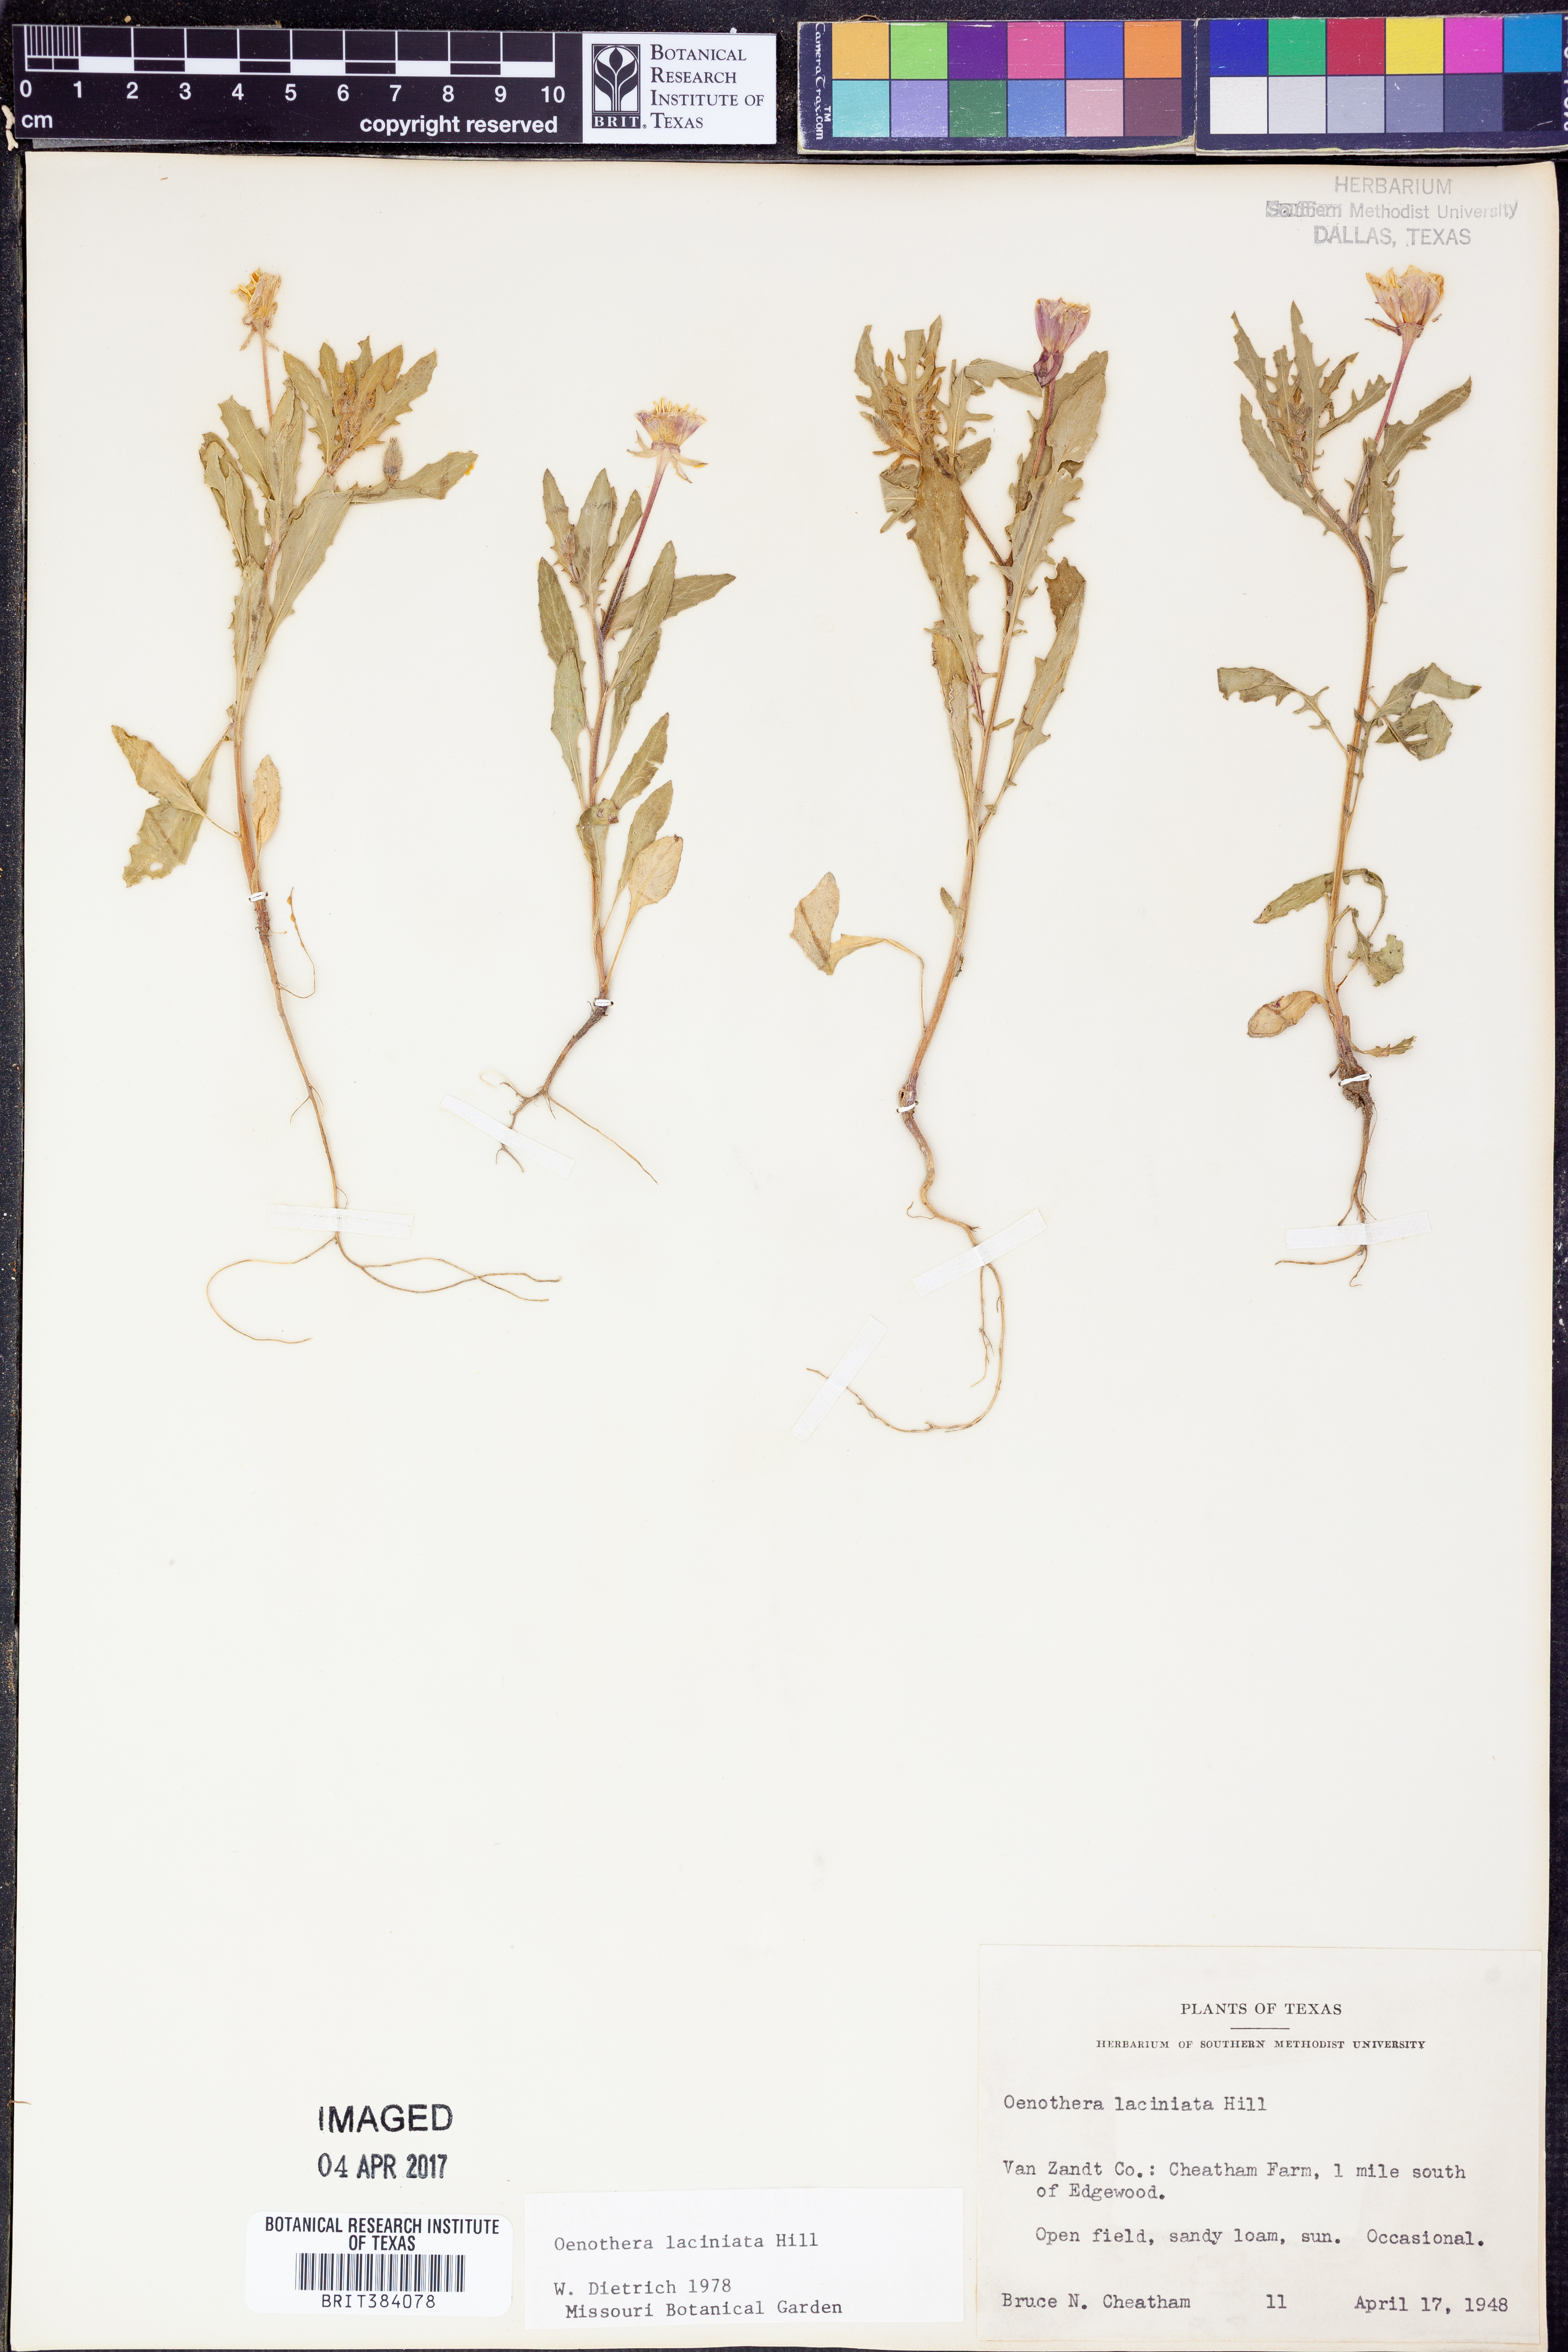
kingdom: Plantae
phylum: Tracheophyta
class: Magnoliopsida
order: Myrtales
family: Onagraceae
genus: Oenothera
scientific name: Oenothera laciniata
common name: Cut-leaved evening-primrose
